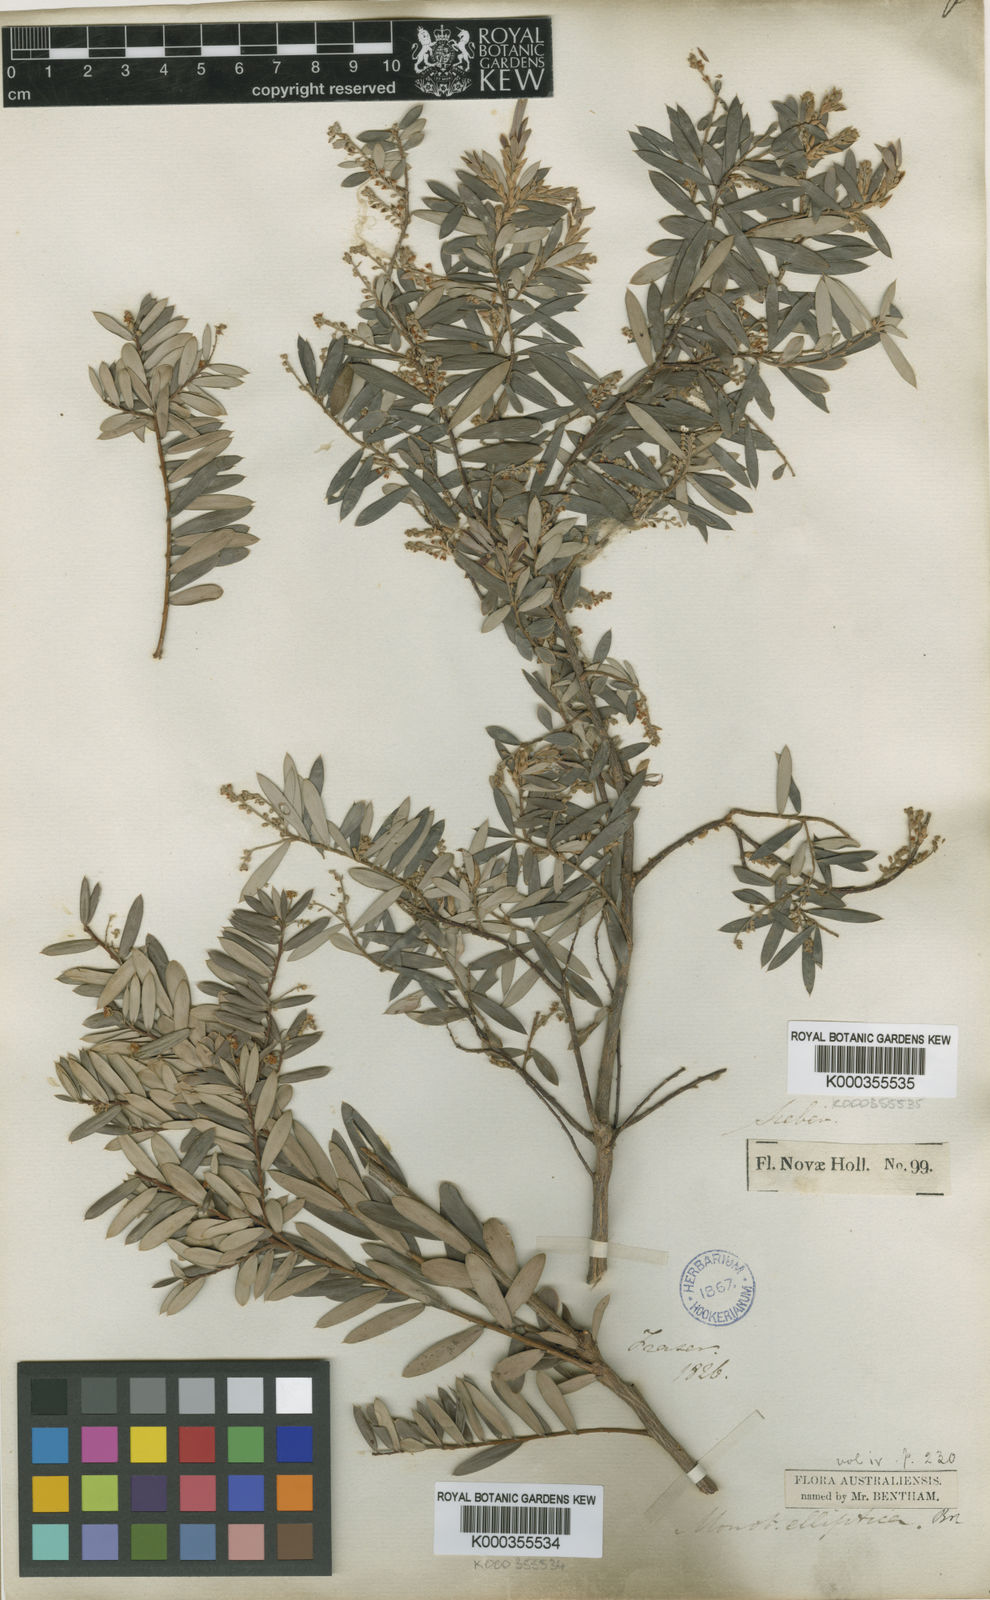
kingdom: Plantae
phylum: Tracheophyta
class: Magnoliopsida
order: Ericales
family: Ericaceae
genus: Monotoca
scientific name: Monotoca elliptica
